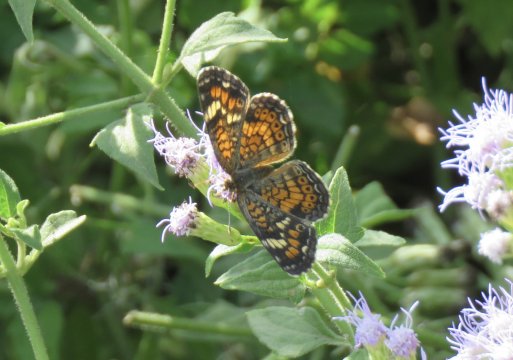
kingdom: Animalia
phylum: Arthropoda
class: Insecta
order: Lepidoptera
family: Nymphalidae
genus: Phyciodes
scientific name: Phyciodes phaon
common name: Phaon Crescent
